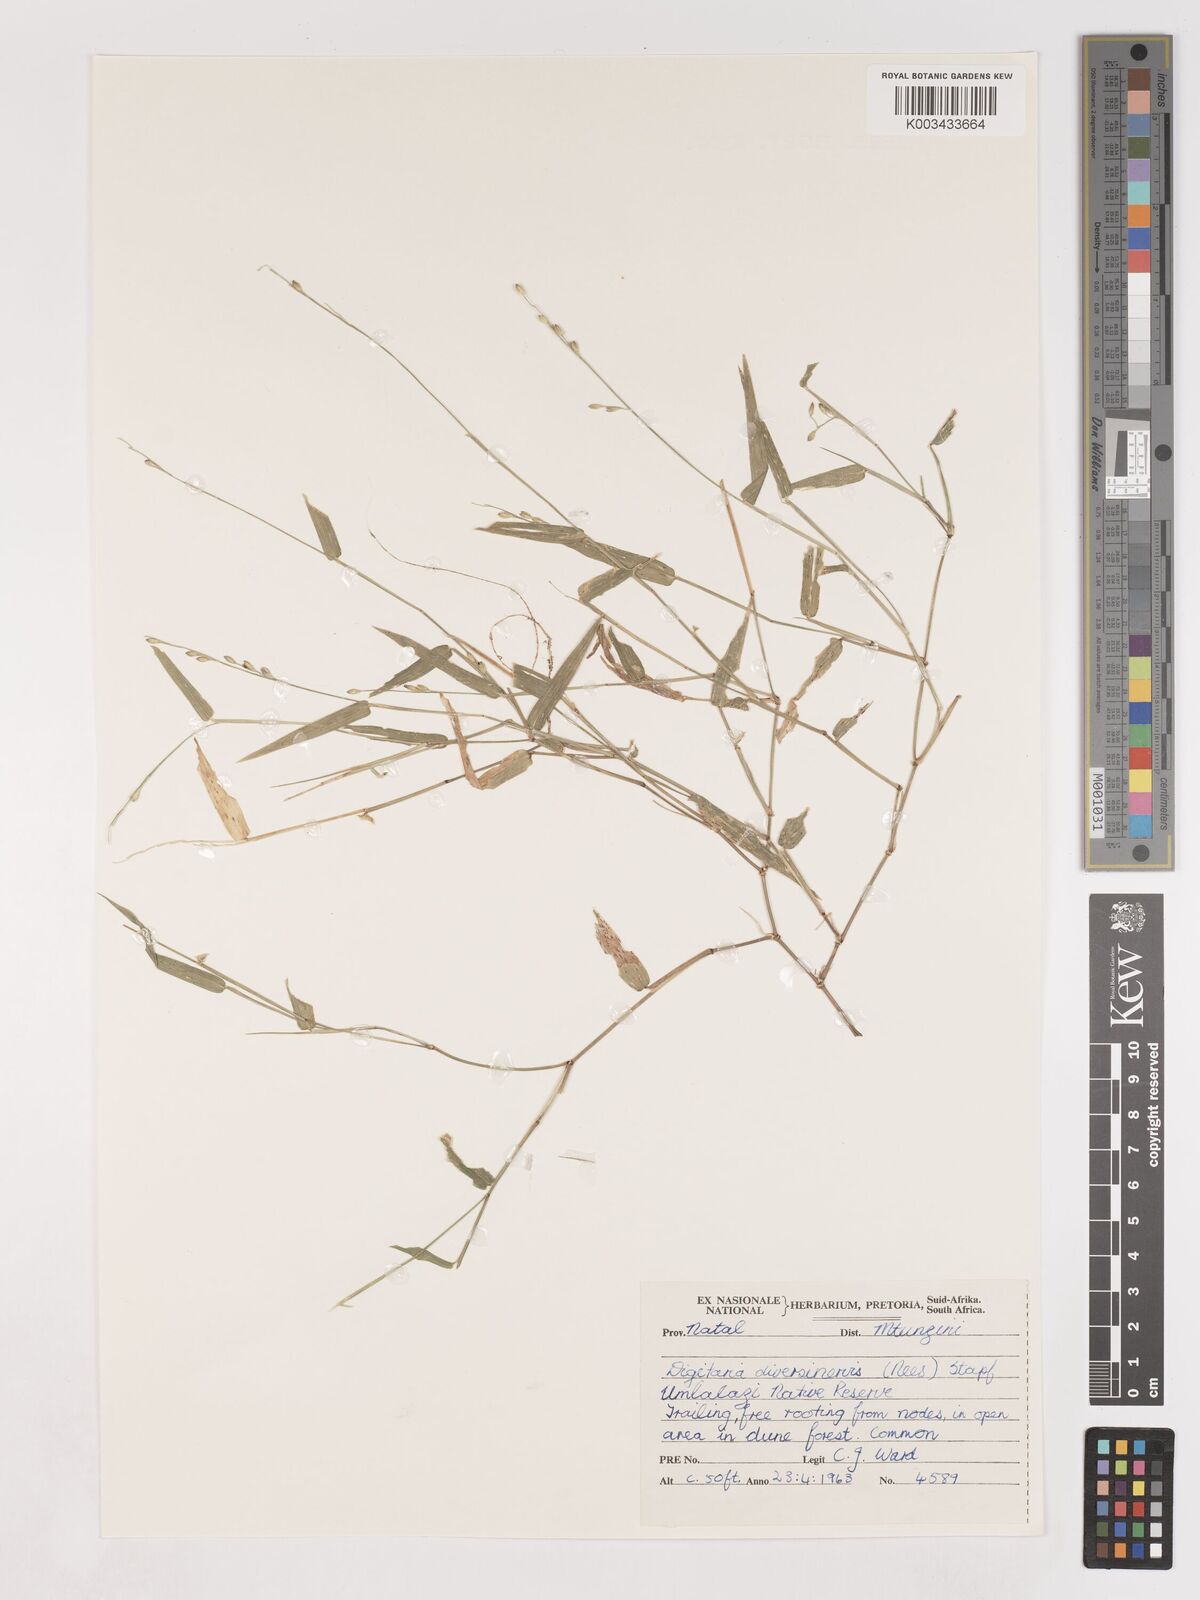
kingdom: Plantae
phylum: Tracheophyta
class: Liliopsida
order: Poales
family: Poaceae
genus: Digitaria
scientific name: Digitaria diversinervis
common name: Richmond finger grass
